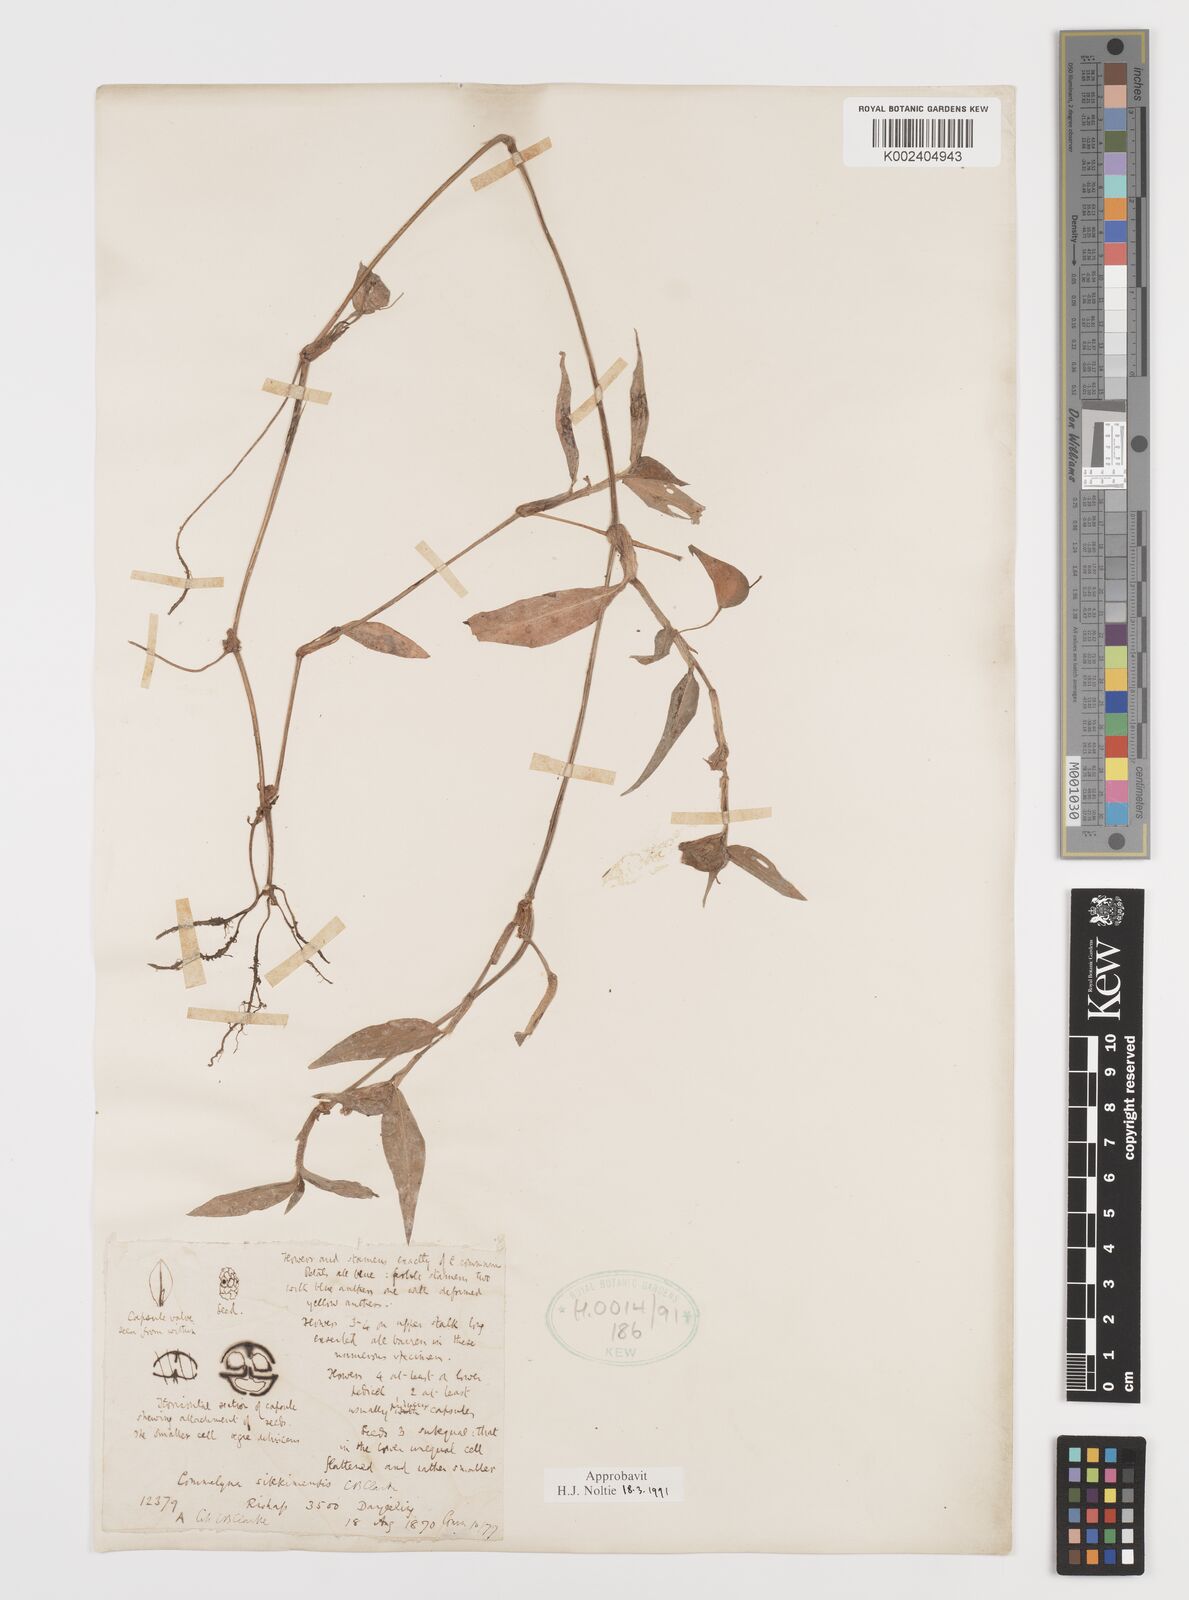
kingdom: Plantae
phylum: Tracheophyta
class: Liliopsida
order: Commelinales
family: Commelinaceae
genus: Commelina
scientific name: Commelina sikkimensis
